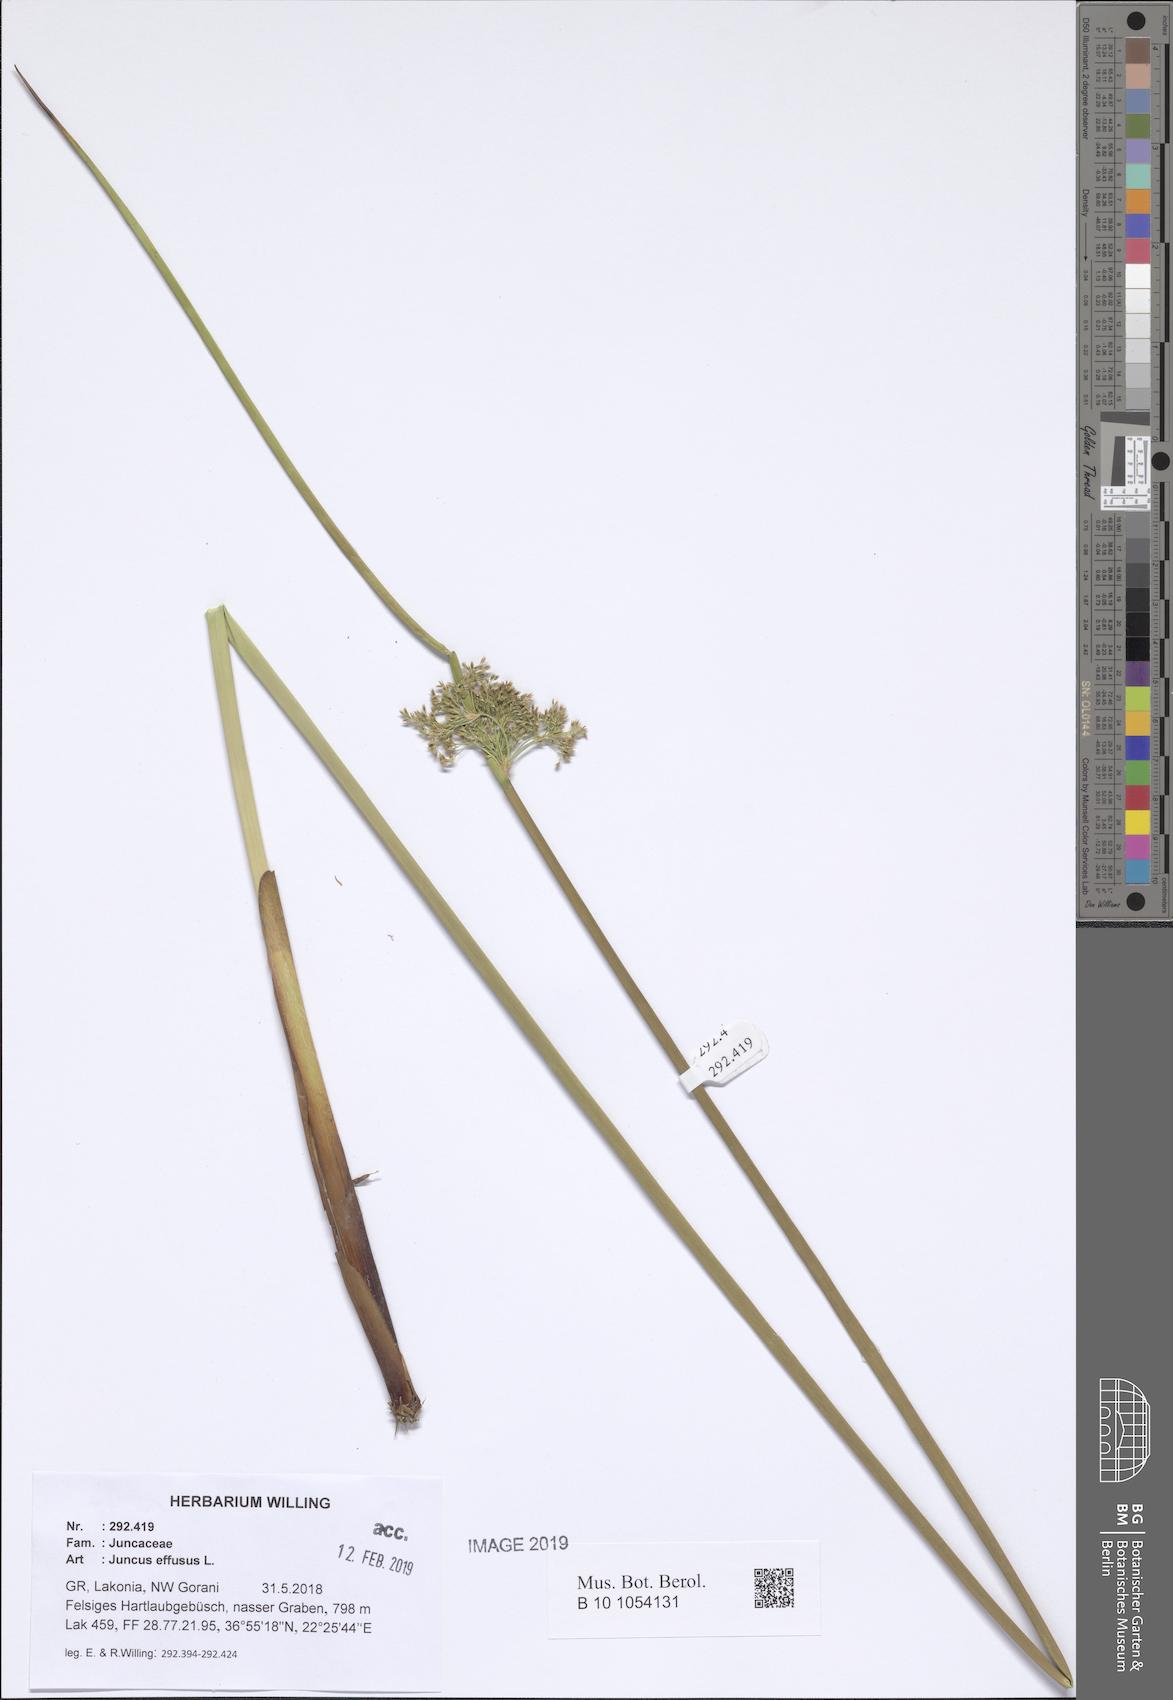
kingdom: Plantae
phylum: Tracheophyta
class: Liliopsida
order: Poales
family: Juncaceae
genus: Juncus
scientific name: Juncus effusus
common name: Soft rush
